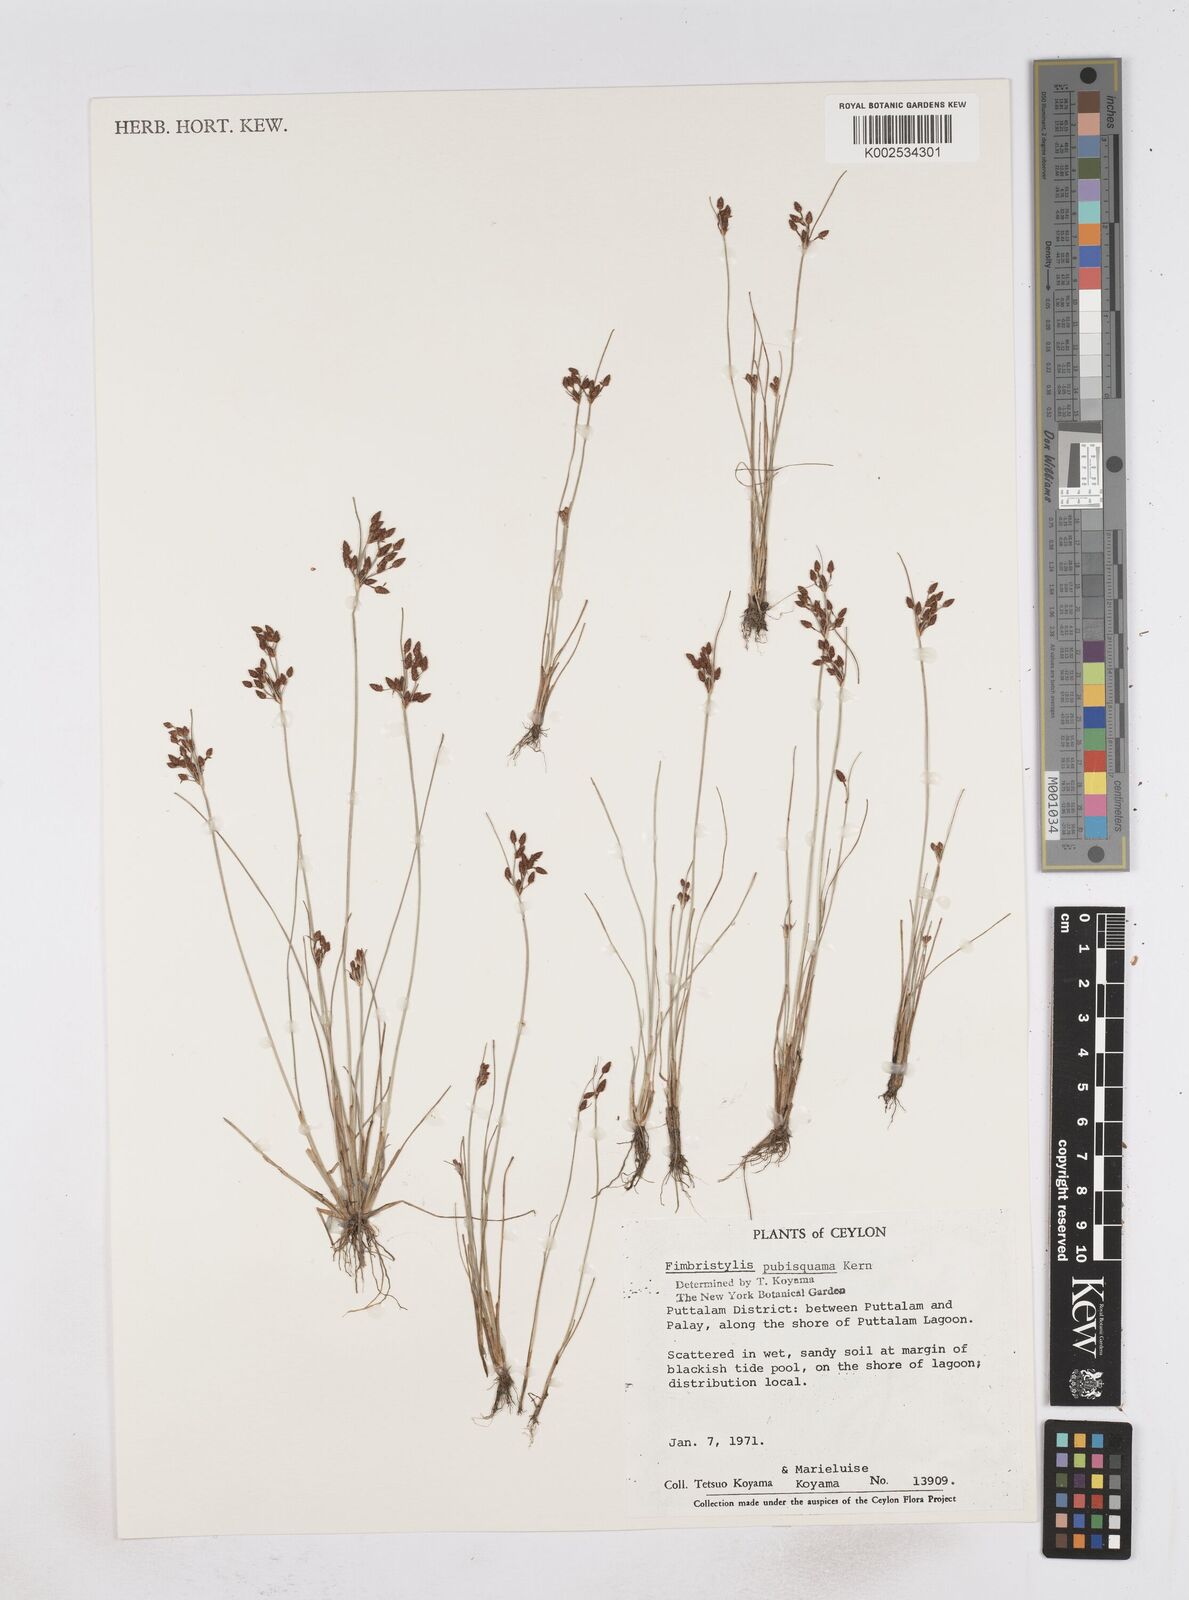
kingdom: Plantae
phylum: Tracheophyta
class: Liliopsida
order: Poales
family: Cyperaceae
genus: Fimbristylis
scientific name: Fimbristylis pubisquama
